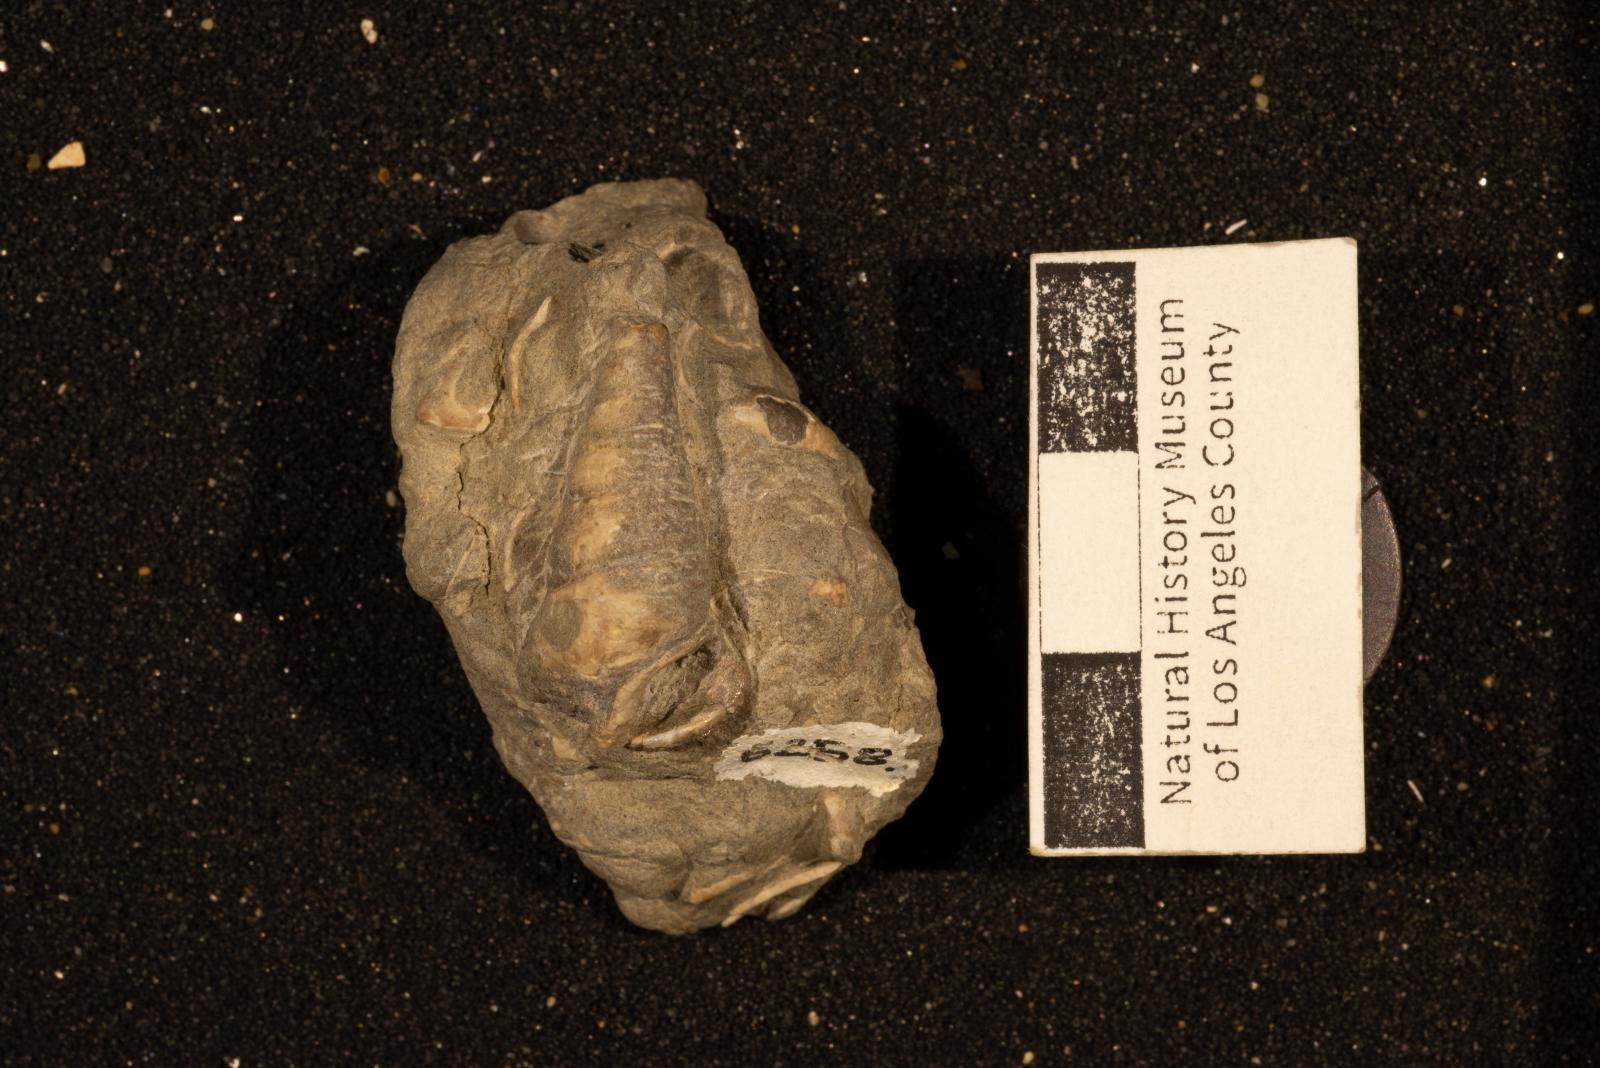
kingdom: Animalia
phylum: Mollusca
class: Gastropoda
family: Potamididae
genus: Terebralia
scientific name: Terebralia
